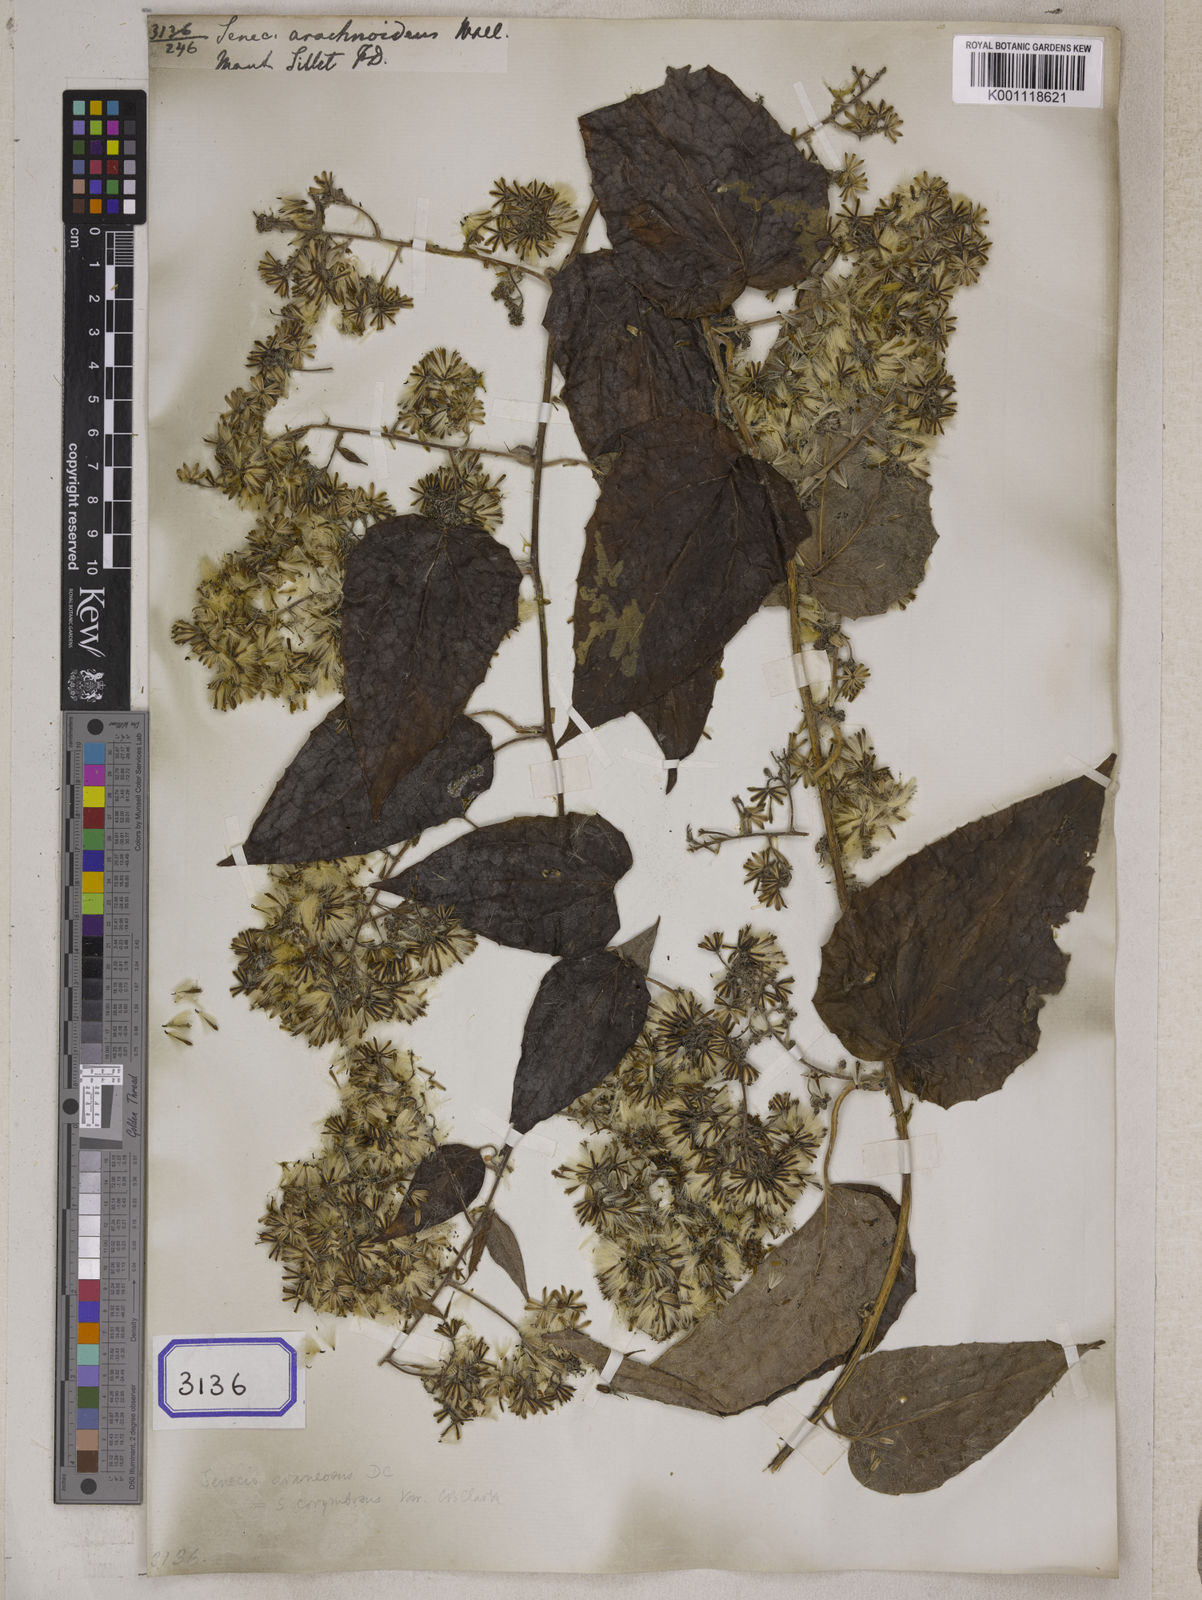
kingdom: Plantae
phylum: Tracheophyta
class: Magnoliopsida
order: Asterales
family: Asteraceae
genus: Cissampelopsis
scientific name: Cissampelopsis volubilis
